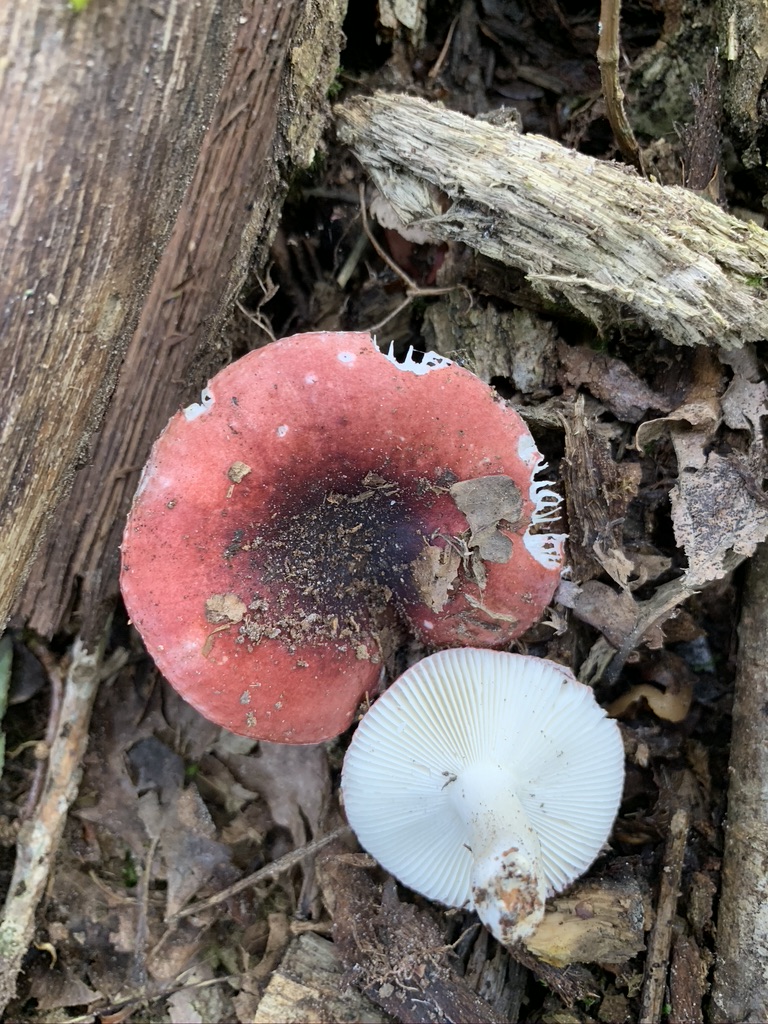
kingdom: Fungi
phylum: Basidiomycota
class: Agaricomycetes
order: Russulales
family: Russulaceae
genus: Russula
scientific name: Russula fragilis
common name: savbladet skørhat
